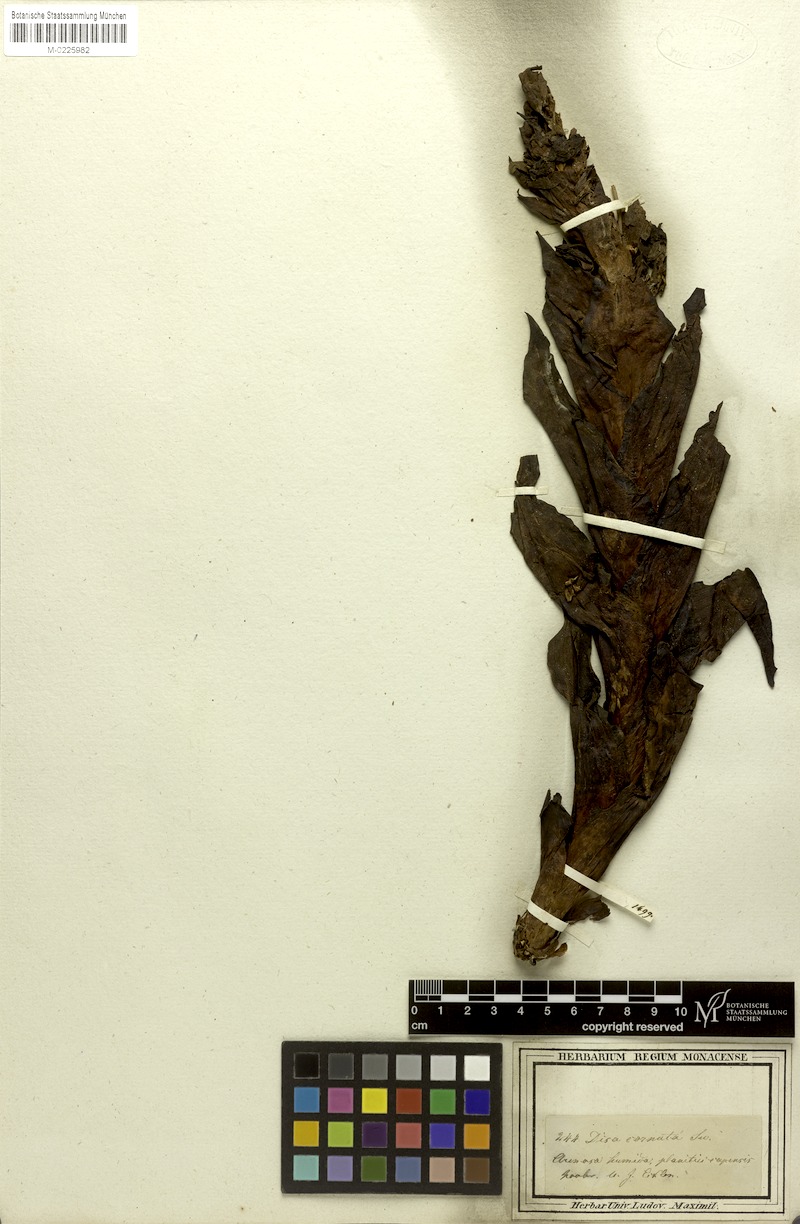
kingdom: Plantae
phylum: Tracheophyta
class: Liliopsida
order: Asparagales
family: Orchidaceae
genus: Disa
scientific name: Disa cornuta
